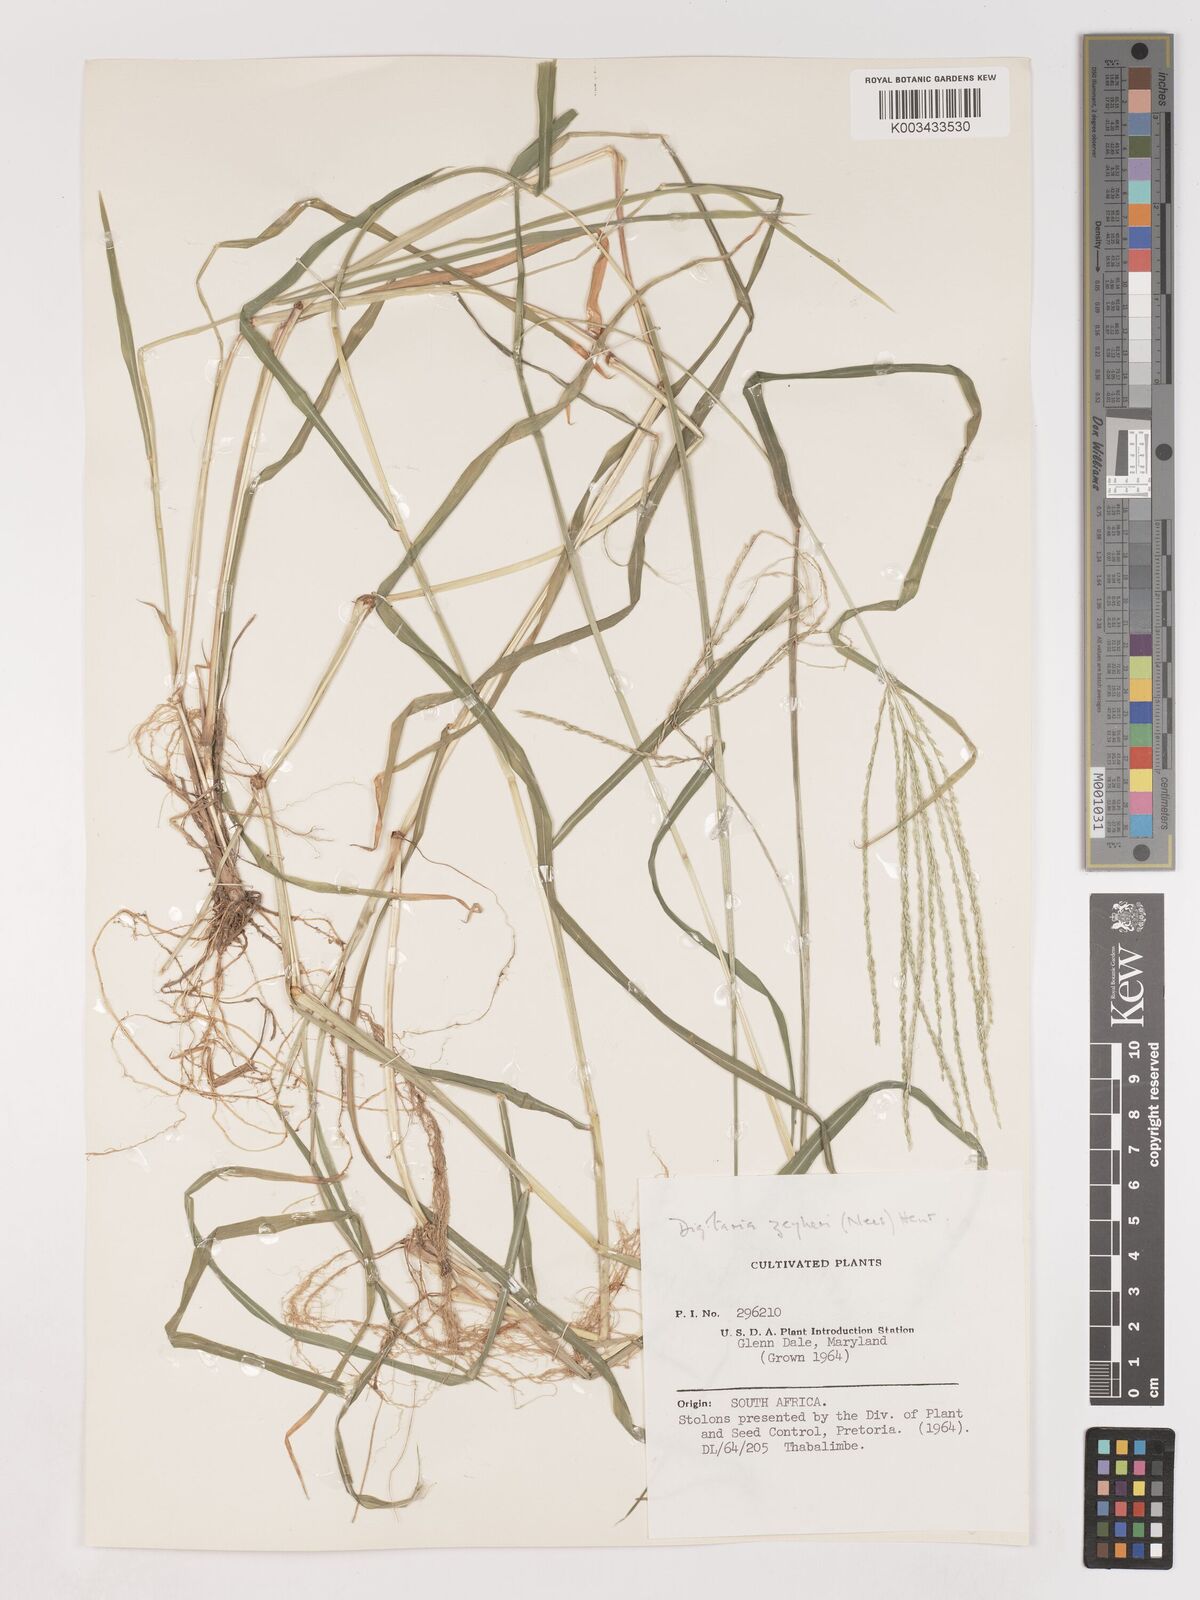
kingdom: Plantae
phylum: Tracheophyta
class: Liliopsida
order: Poales
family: Poaceae
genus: Digitaria
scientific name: Digitaria eriantha
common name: Digitgrass
